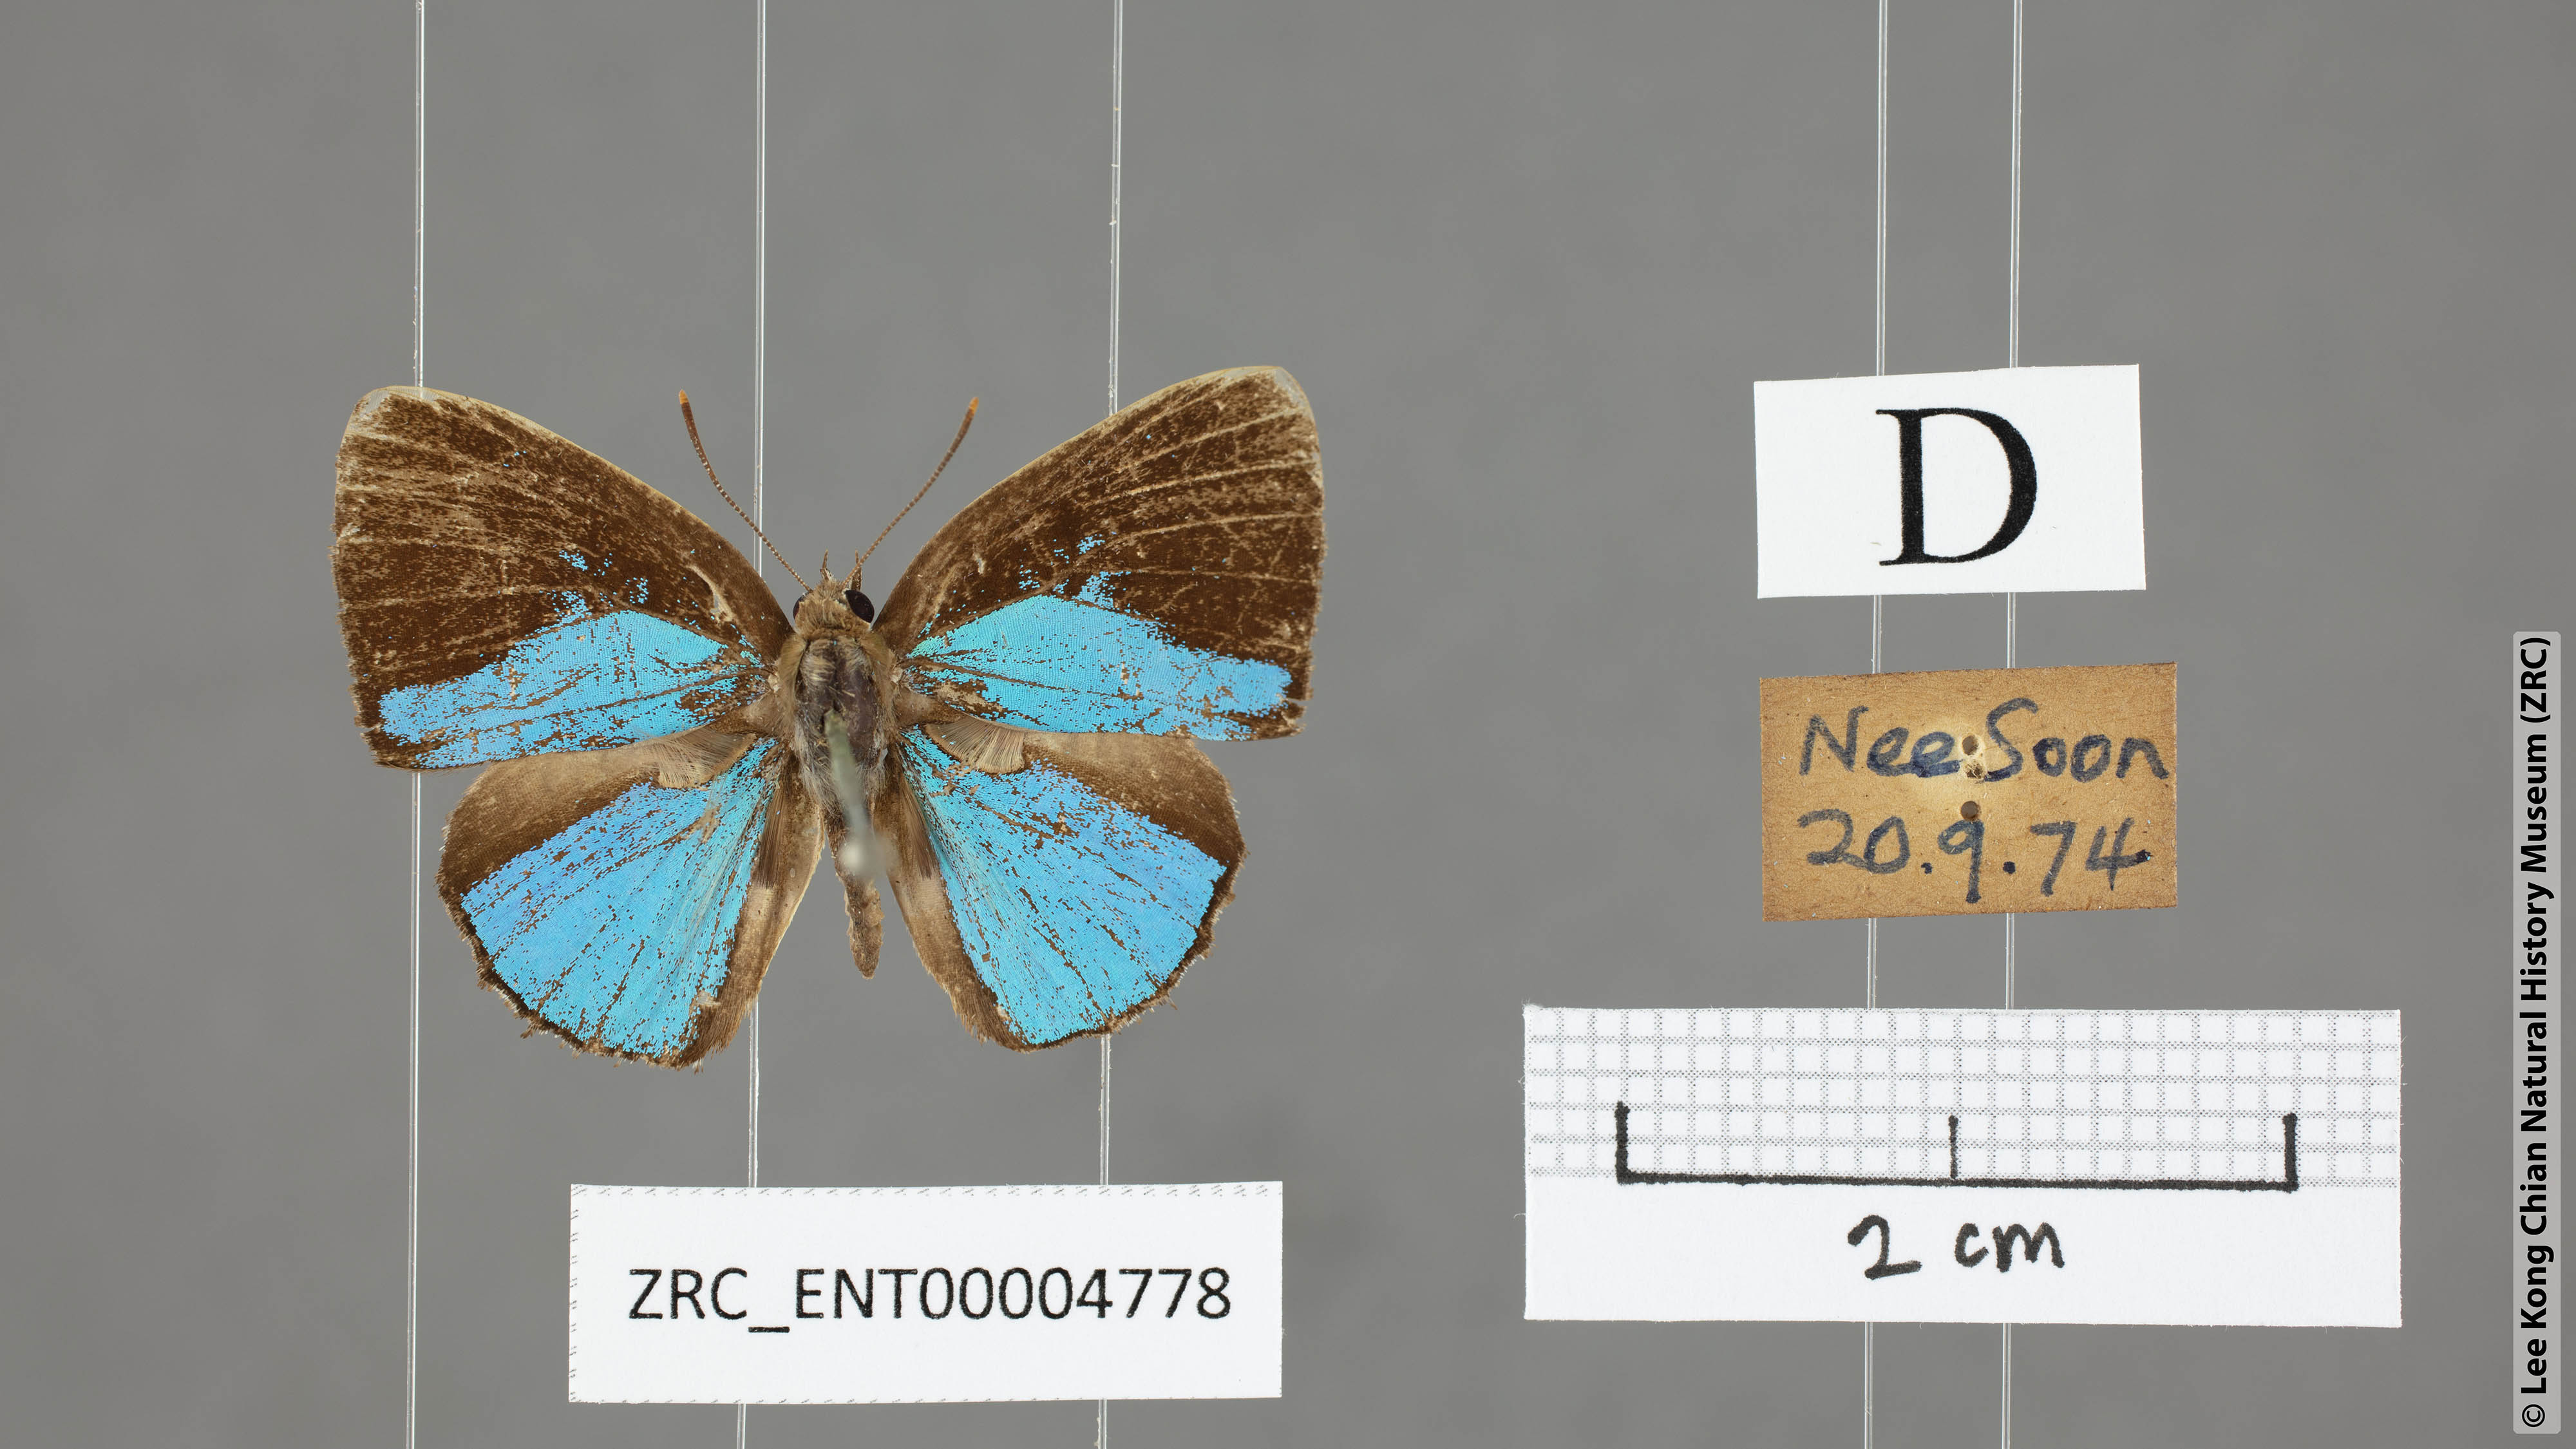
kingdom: Animalia
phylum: Arthropoda
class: Insecta
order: Lepidoptera
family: Lycaenidae
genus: Poritia
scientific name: Poritia sumatrae
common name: Sumatran gem
